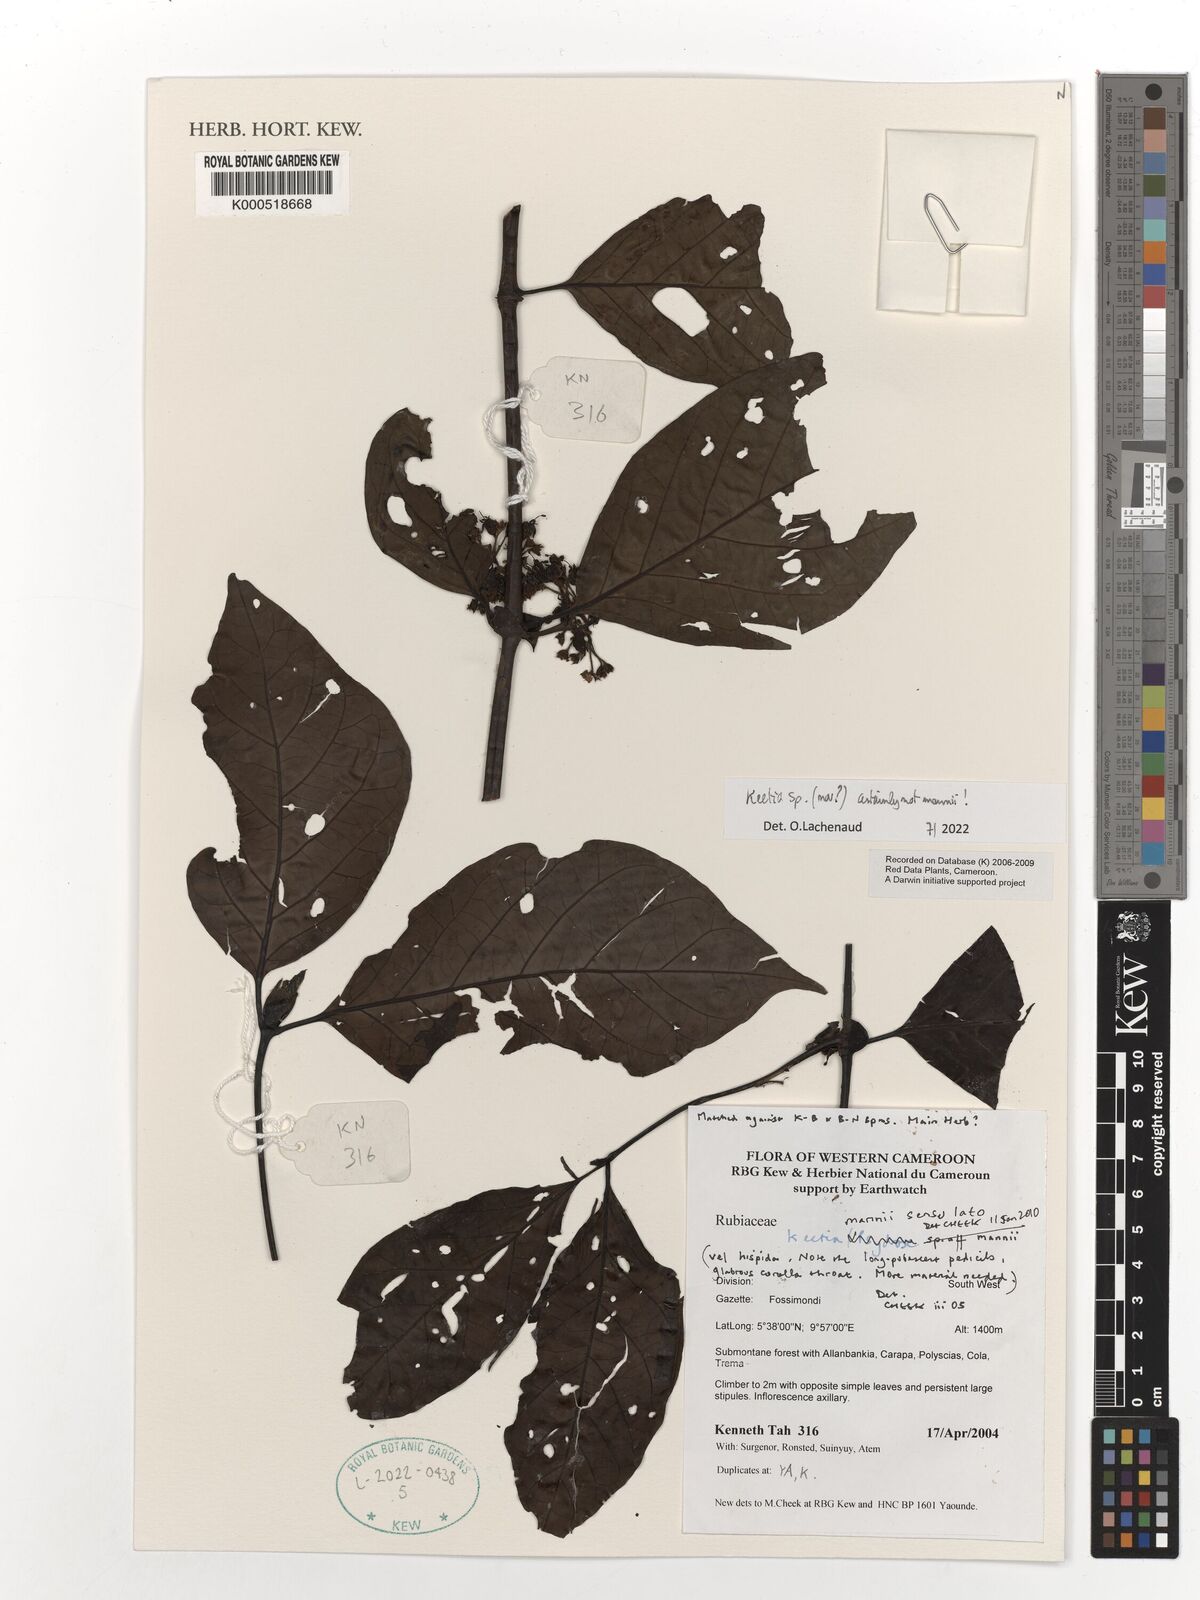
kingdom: Plantae
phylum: Tracheophyta
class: Magnoliopsida
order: Gentianales
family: Rubiaceae
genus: Keetia
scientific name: Keetia
